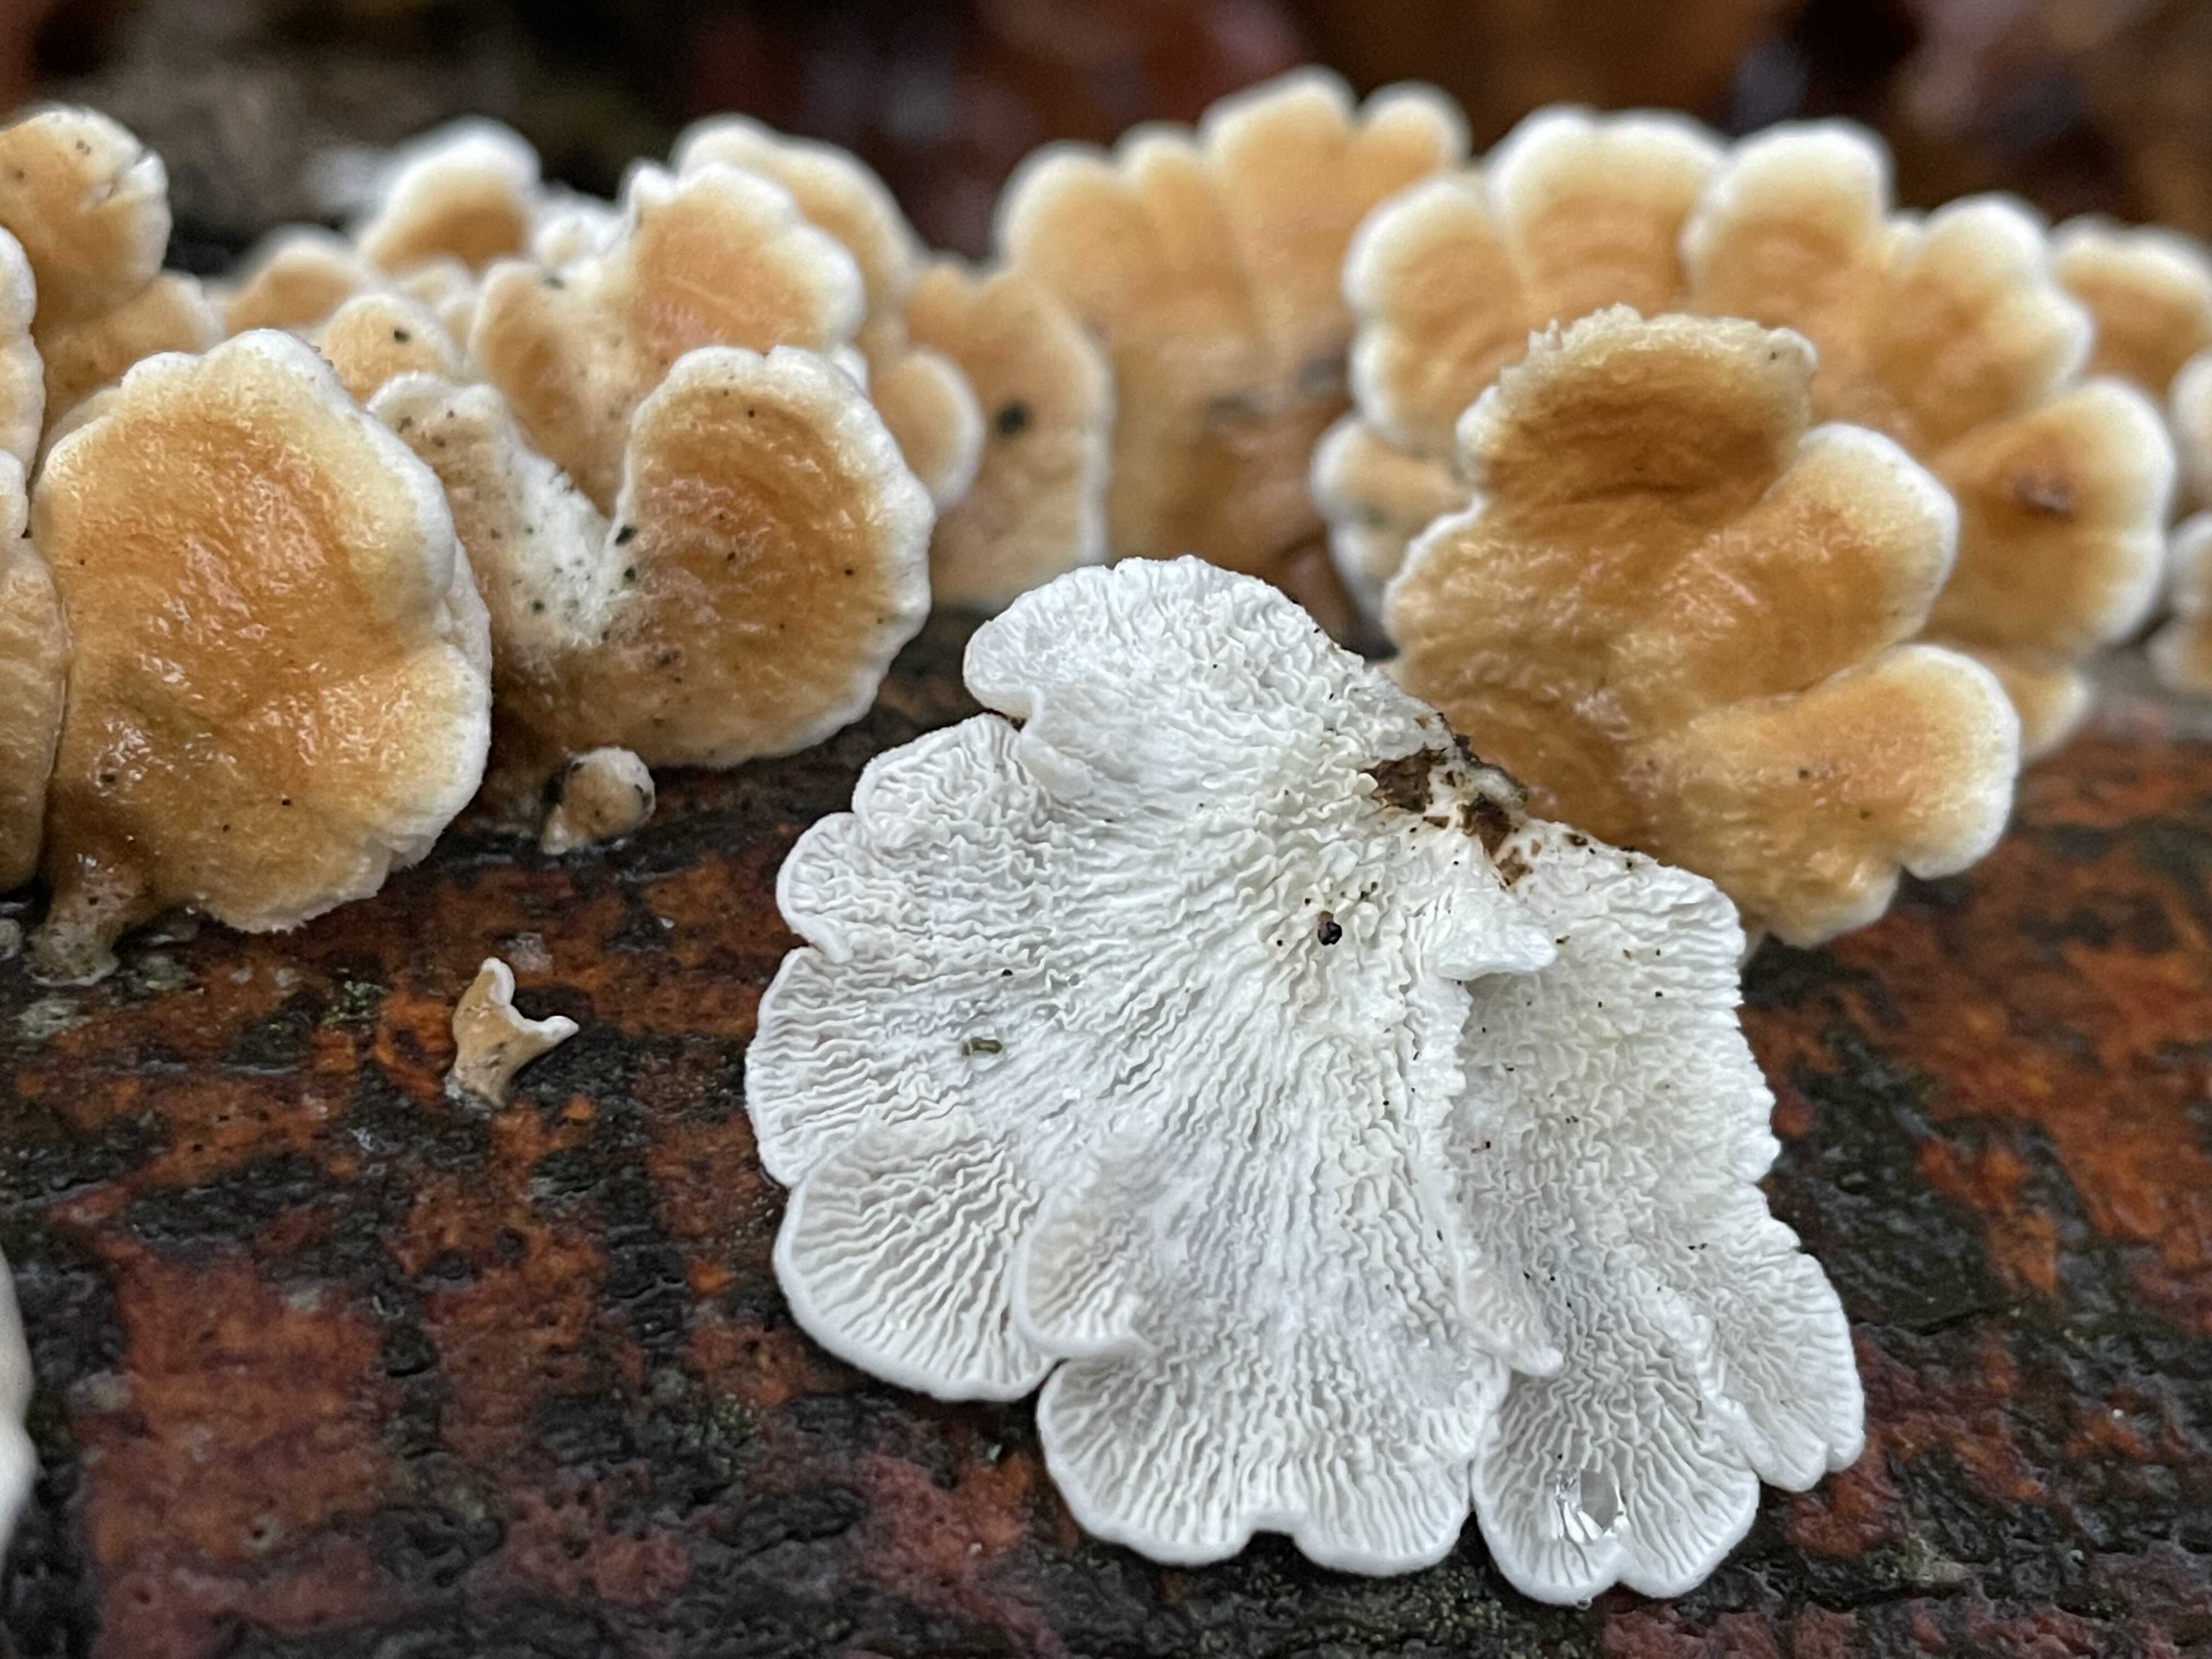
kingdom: Fungi
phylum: Basidiomycota
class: Agaricomycetes
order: Amylocorticiales
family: Amylocorticiaceae
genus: Plicaturopsis
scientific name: Plicaturopsis crispa
